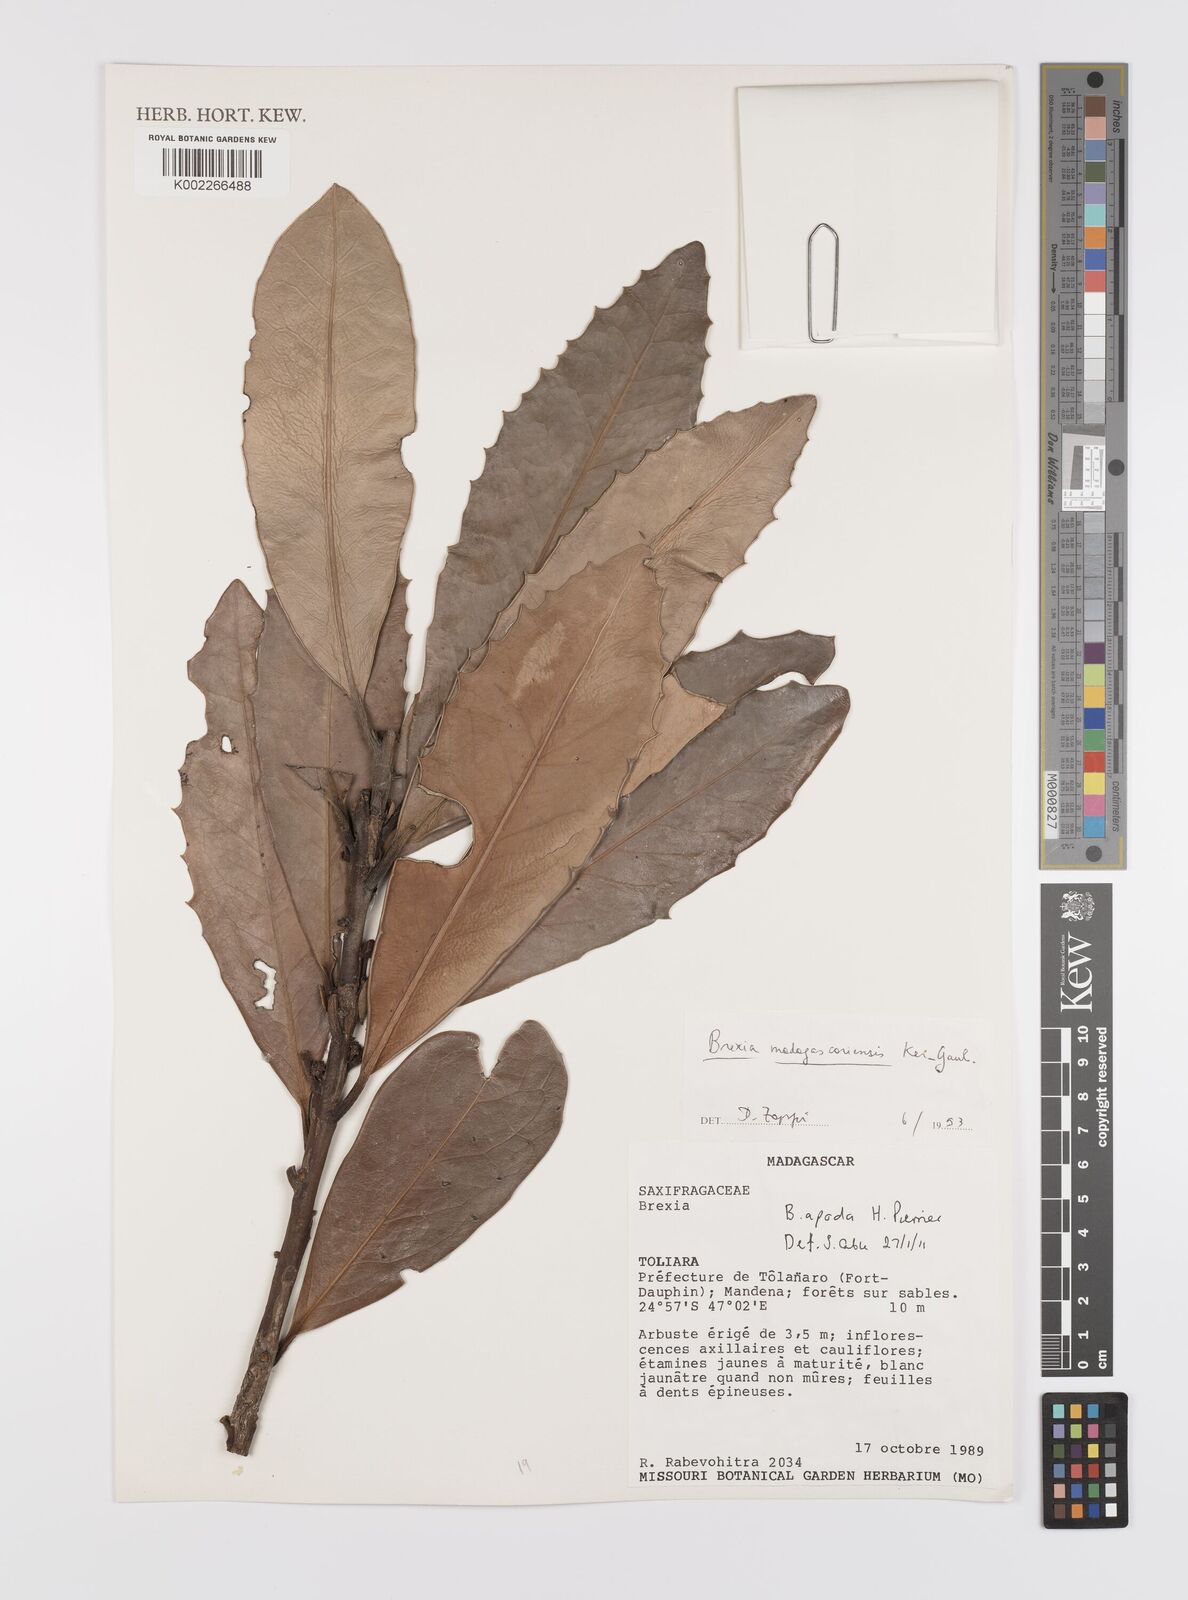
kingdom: Plantae
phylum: Tracheophyta
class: Magnoliopsida
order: Celastrales
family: Celastraceae
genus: Brexia
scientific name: Brexia apoda
